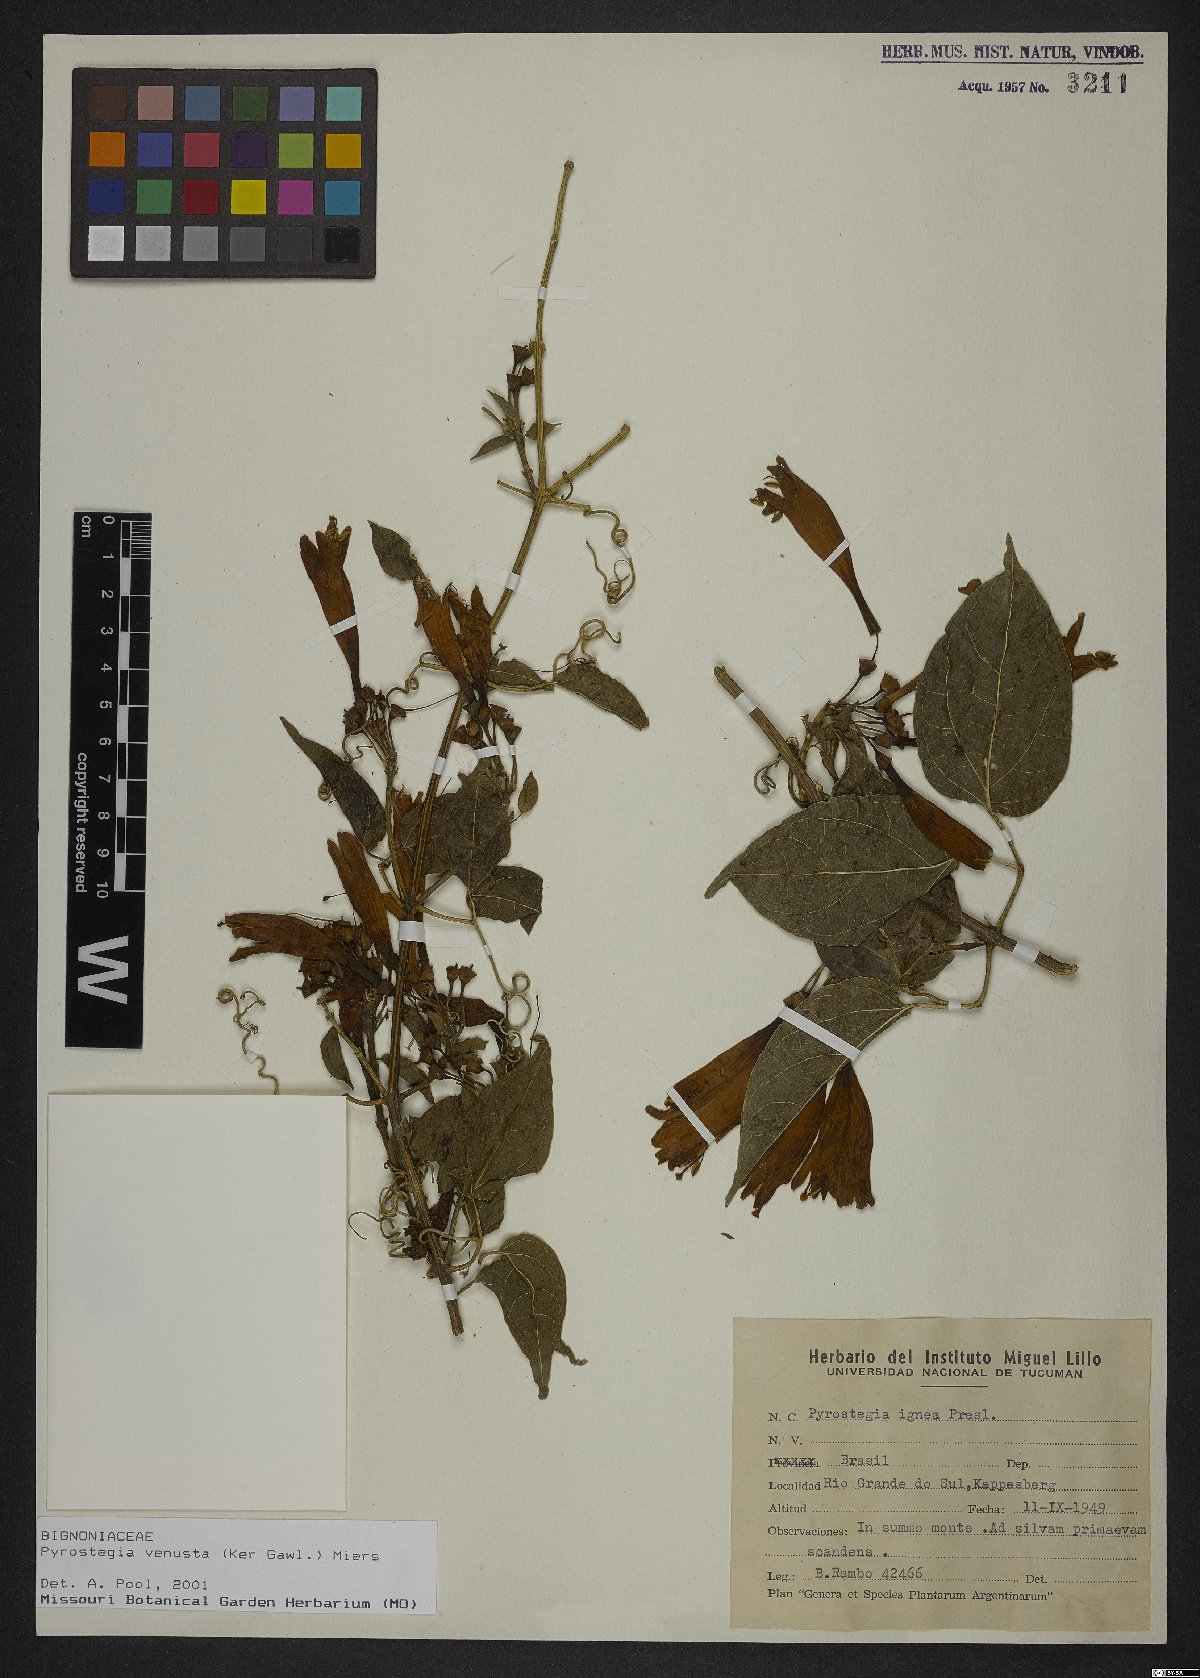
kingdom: Plantae
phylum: Tracheophyta
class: Magnoliopsida
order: Lamiales
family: Bignoniaceae
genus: Pyrostegia
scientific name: Pyrostegia venusta
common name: Flamevine
